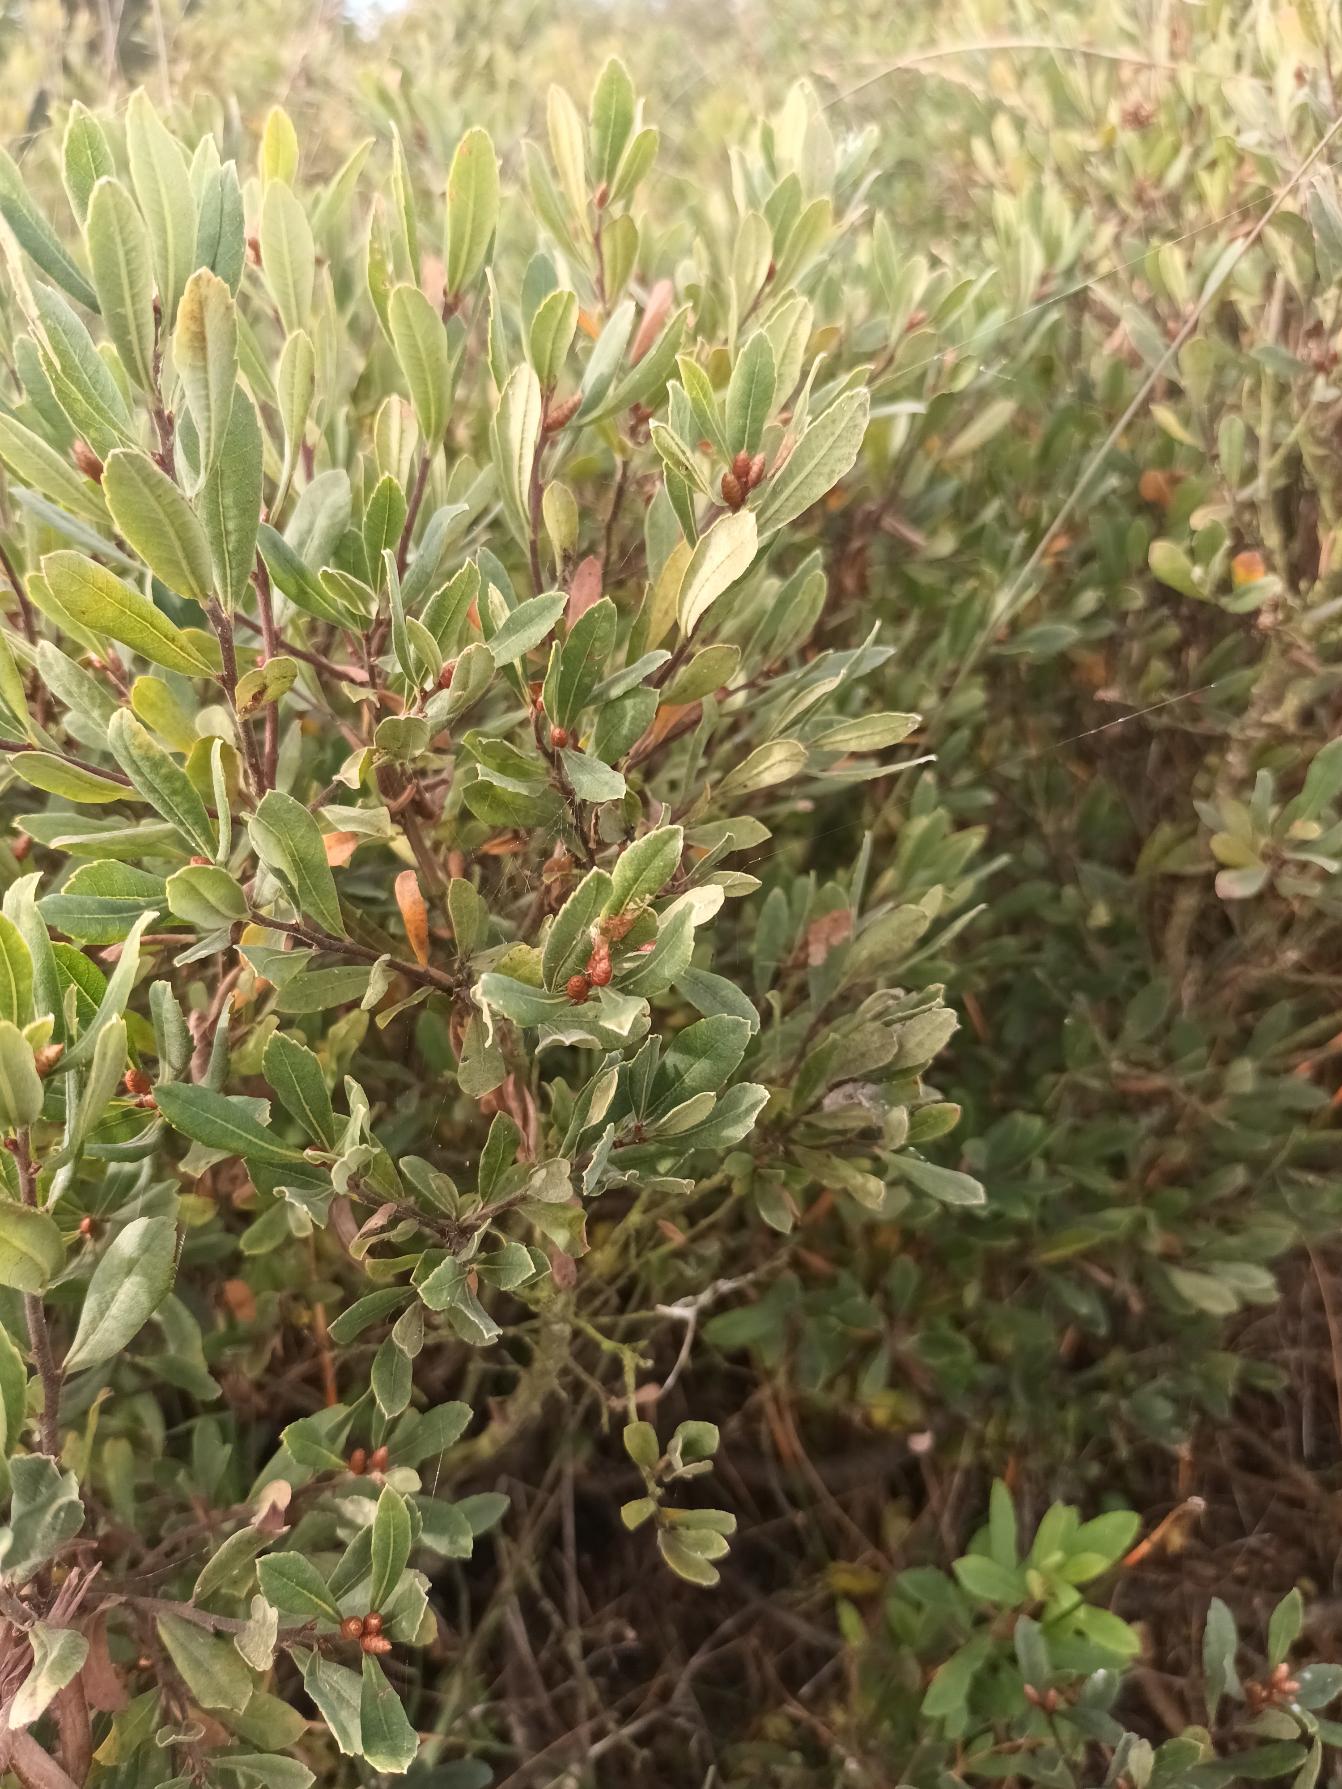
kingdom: Plantae
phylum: Tracheophyta
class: Magnoliopsida
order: Fagales
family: Myricaceae
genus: Myrica
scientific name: Myrica gale
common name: Pors
